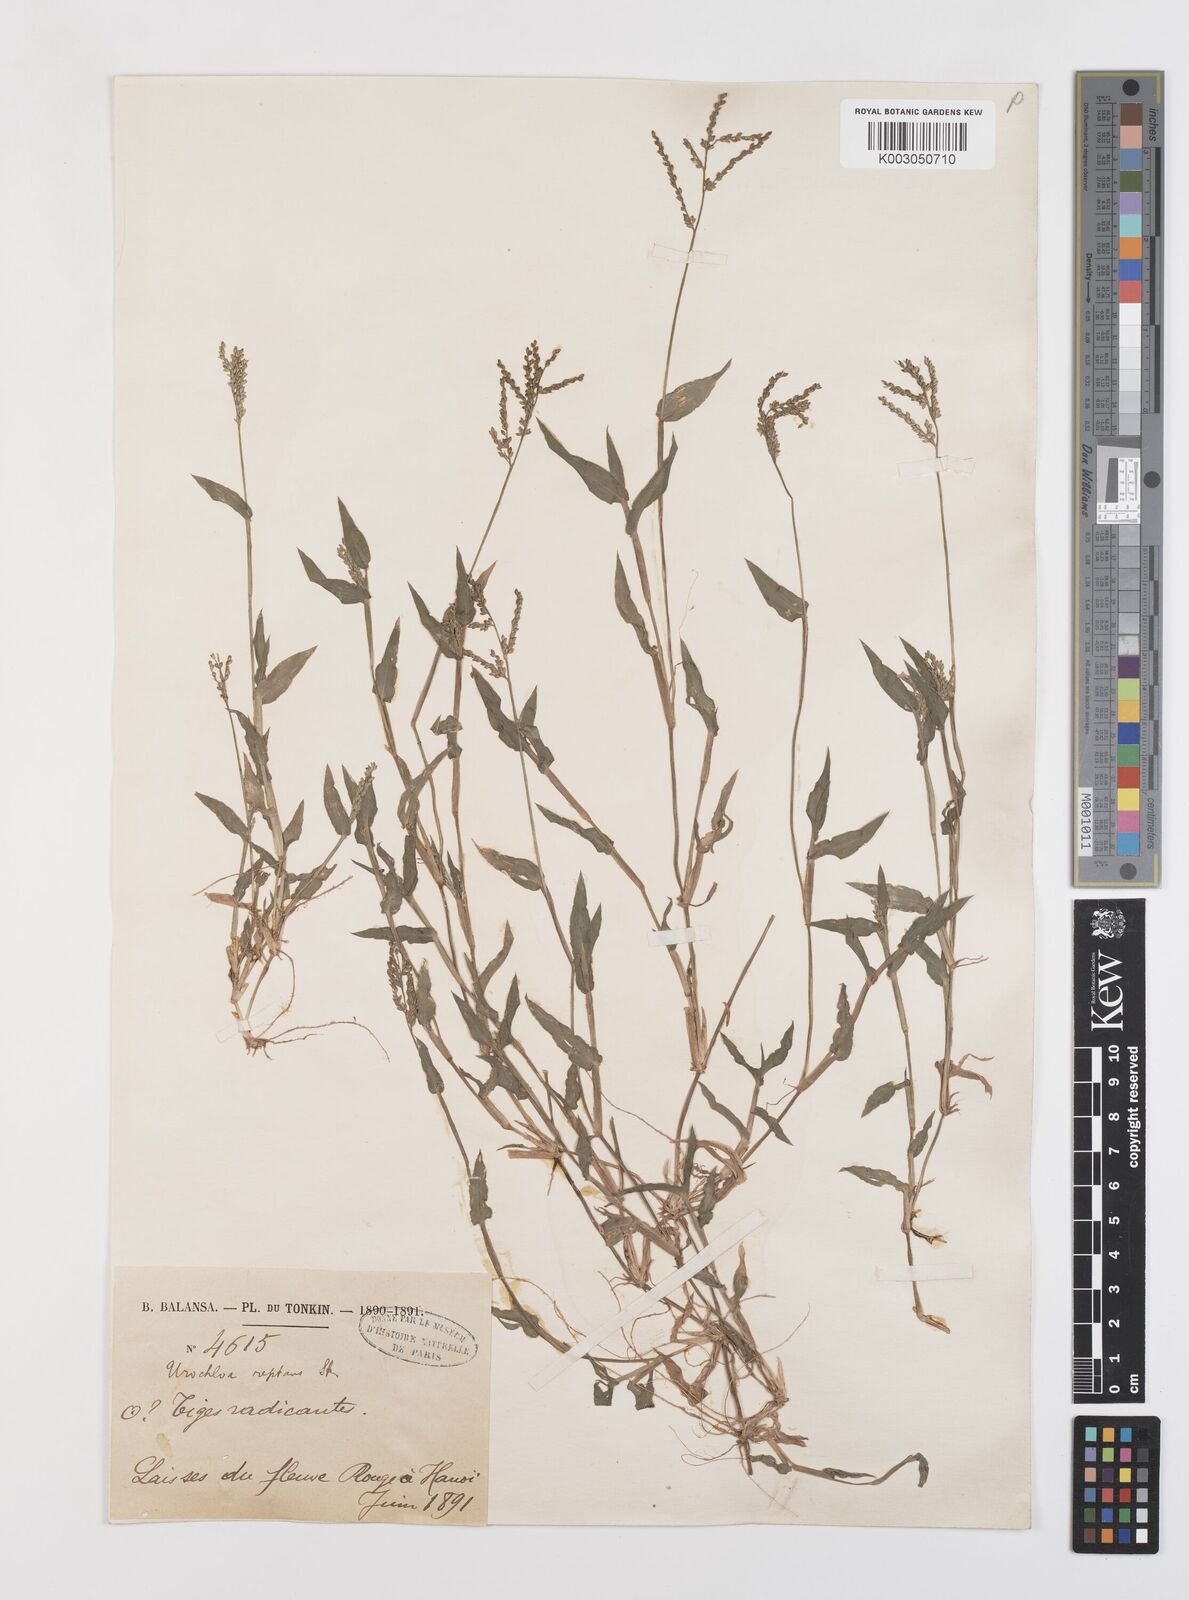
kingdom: Plantae
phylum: Tracheophyta
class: Liliopsida
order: Poales
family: Poaceae
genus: Urochloa
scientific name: Urochloa reptans
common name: Sprawling signalgrass
